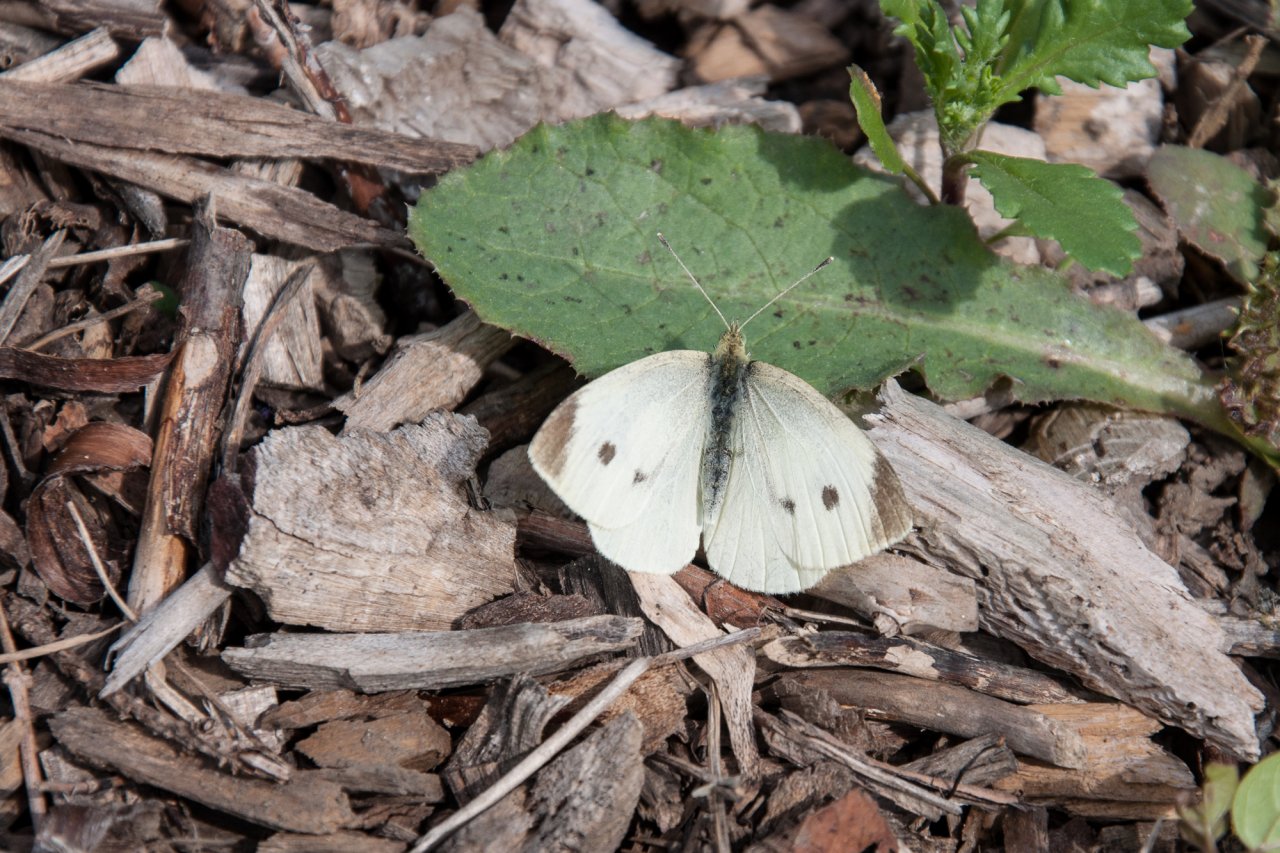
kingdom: Animalia
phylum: Arthropoda
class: Insecta
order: Lepidoptera
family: Pieridae
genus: Pieris
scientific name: Pieris rapae
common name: Cabbage White
